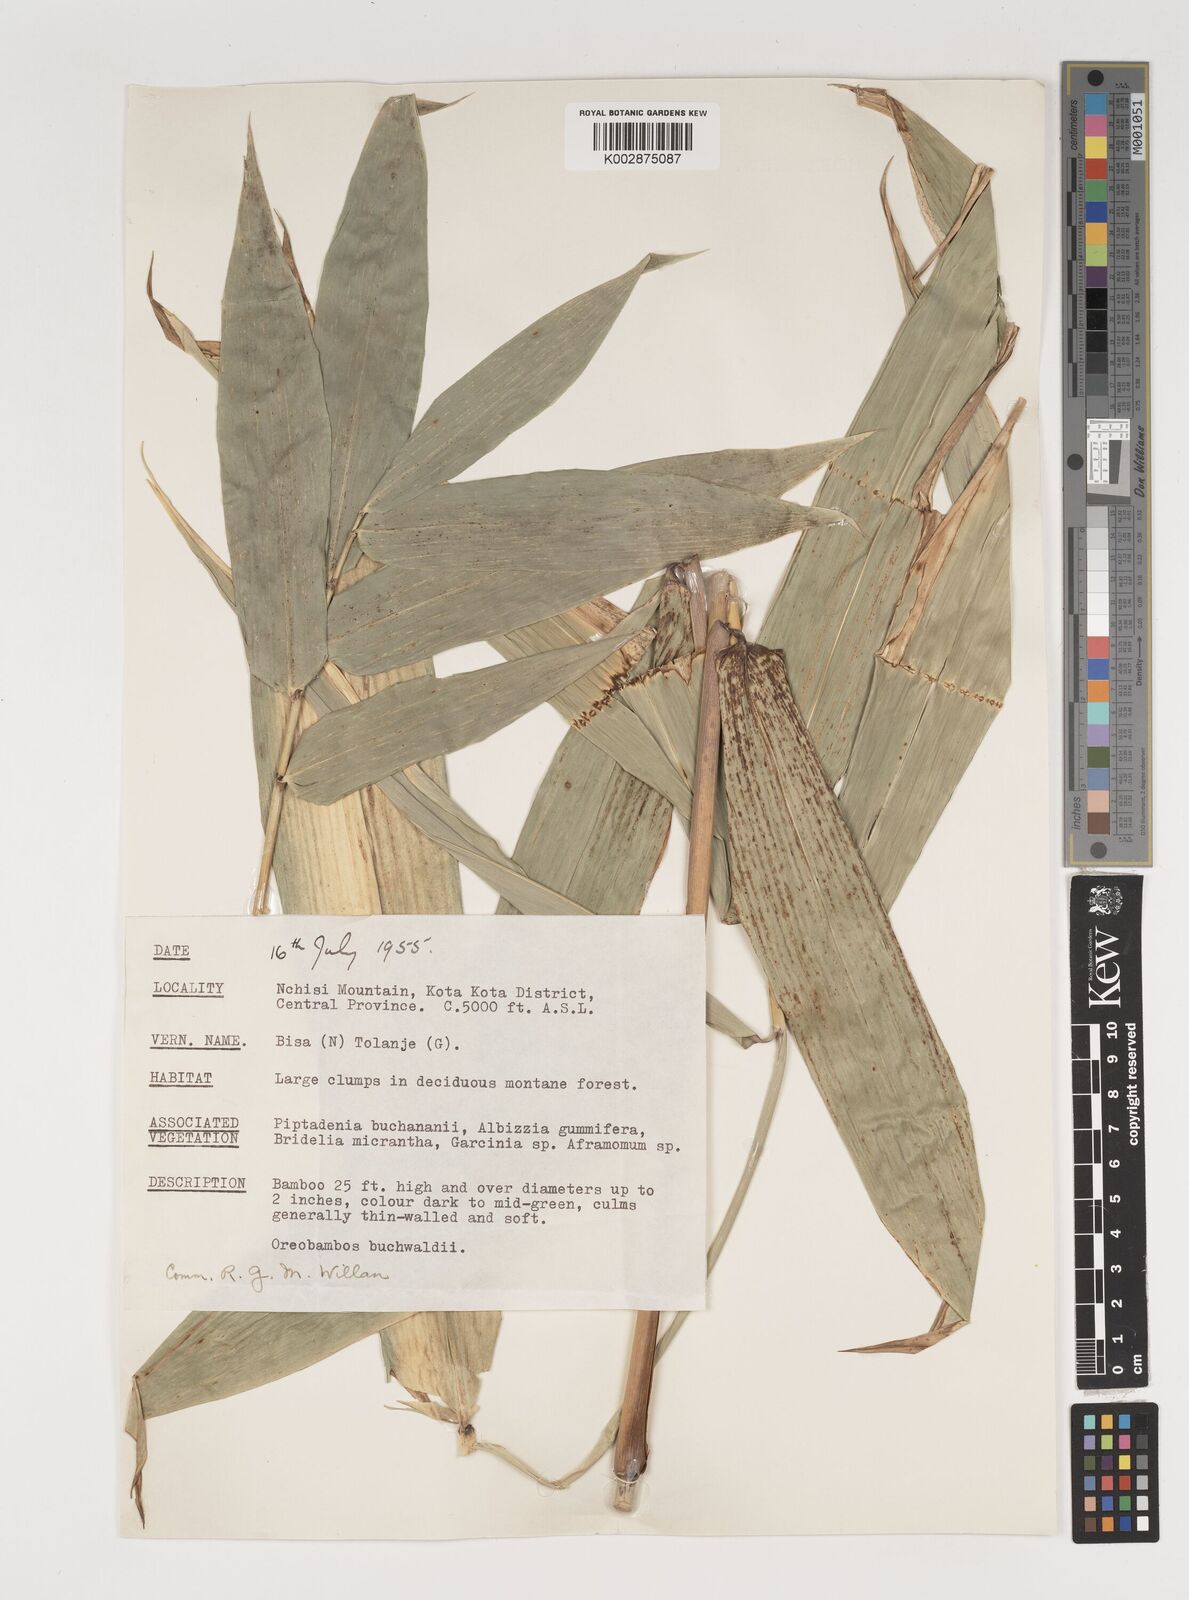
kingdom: Plantae
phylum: Tracheophyta
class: Liliopsida
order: Poales
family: Poaceae
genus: Oreobambos
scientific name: Oreobambos buchwaldii
